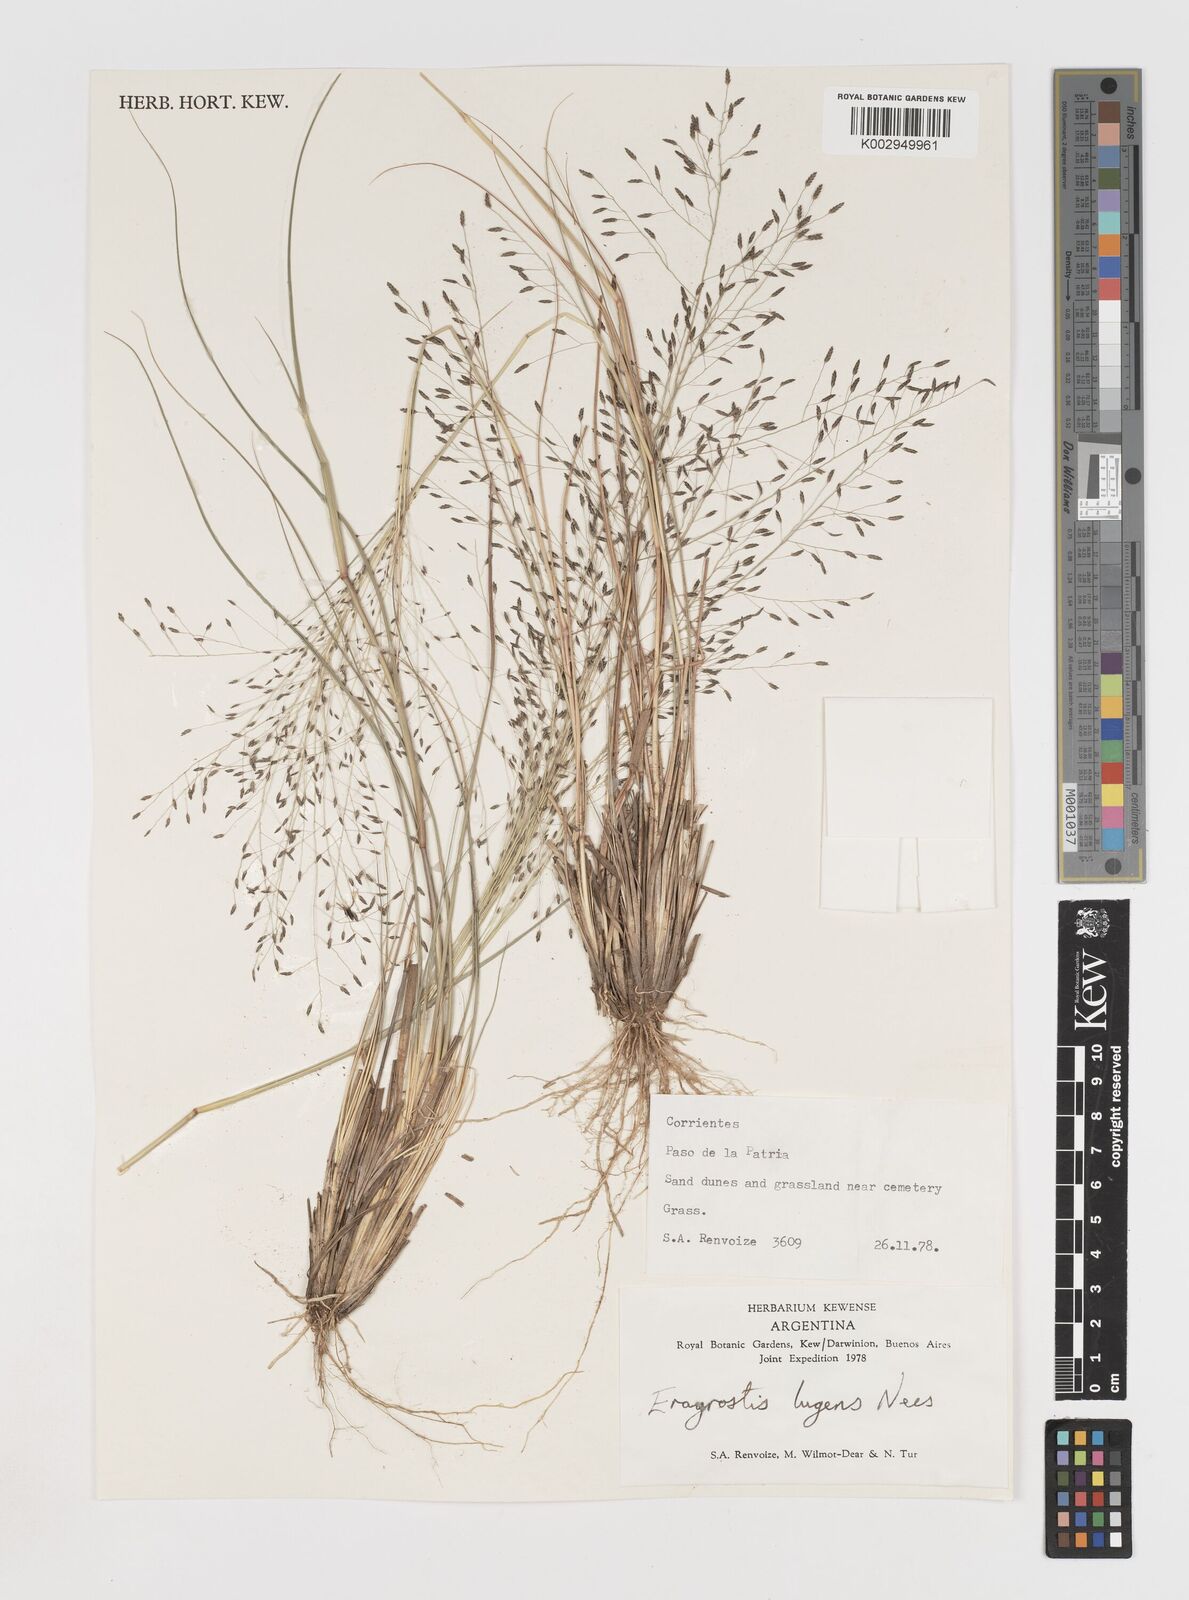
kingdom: Plantae
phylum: Tracheophyta
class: Liliopsida
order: Poales
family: Poaceae
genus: Eragrostis
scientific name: Eragrostis
